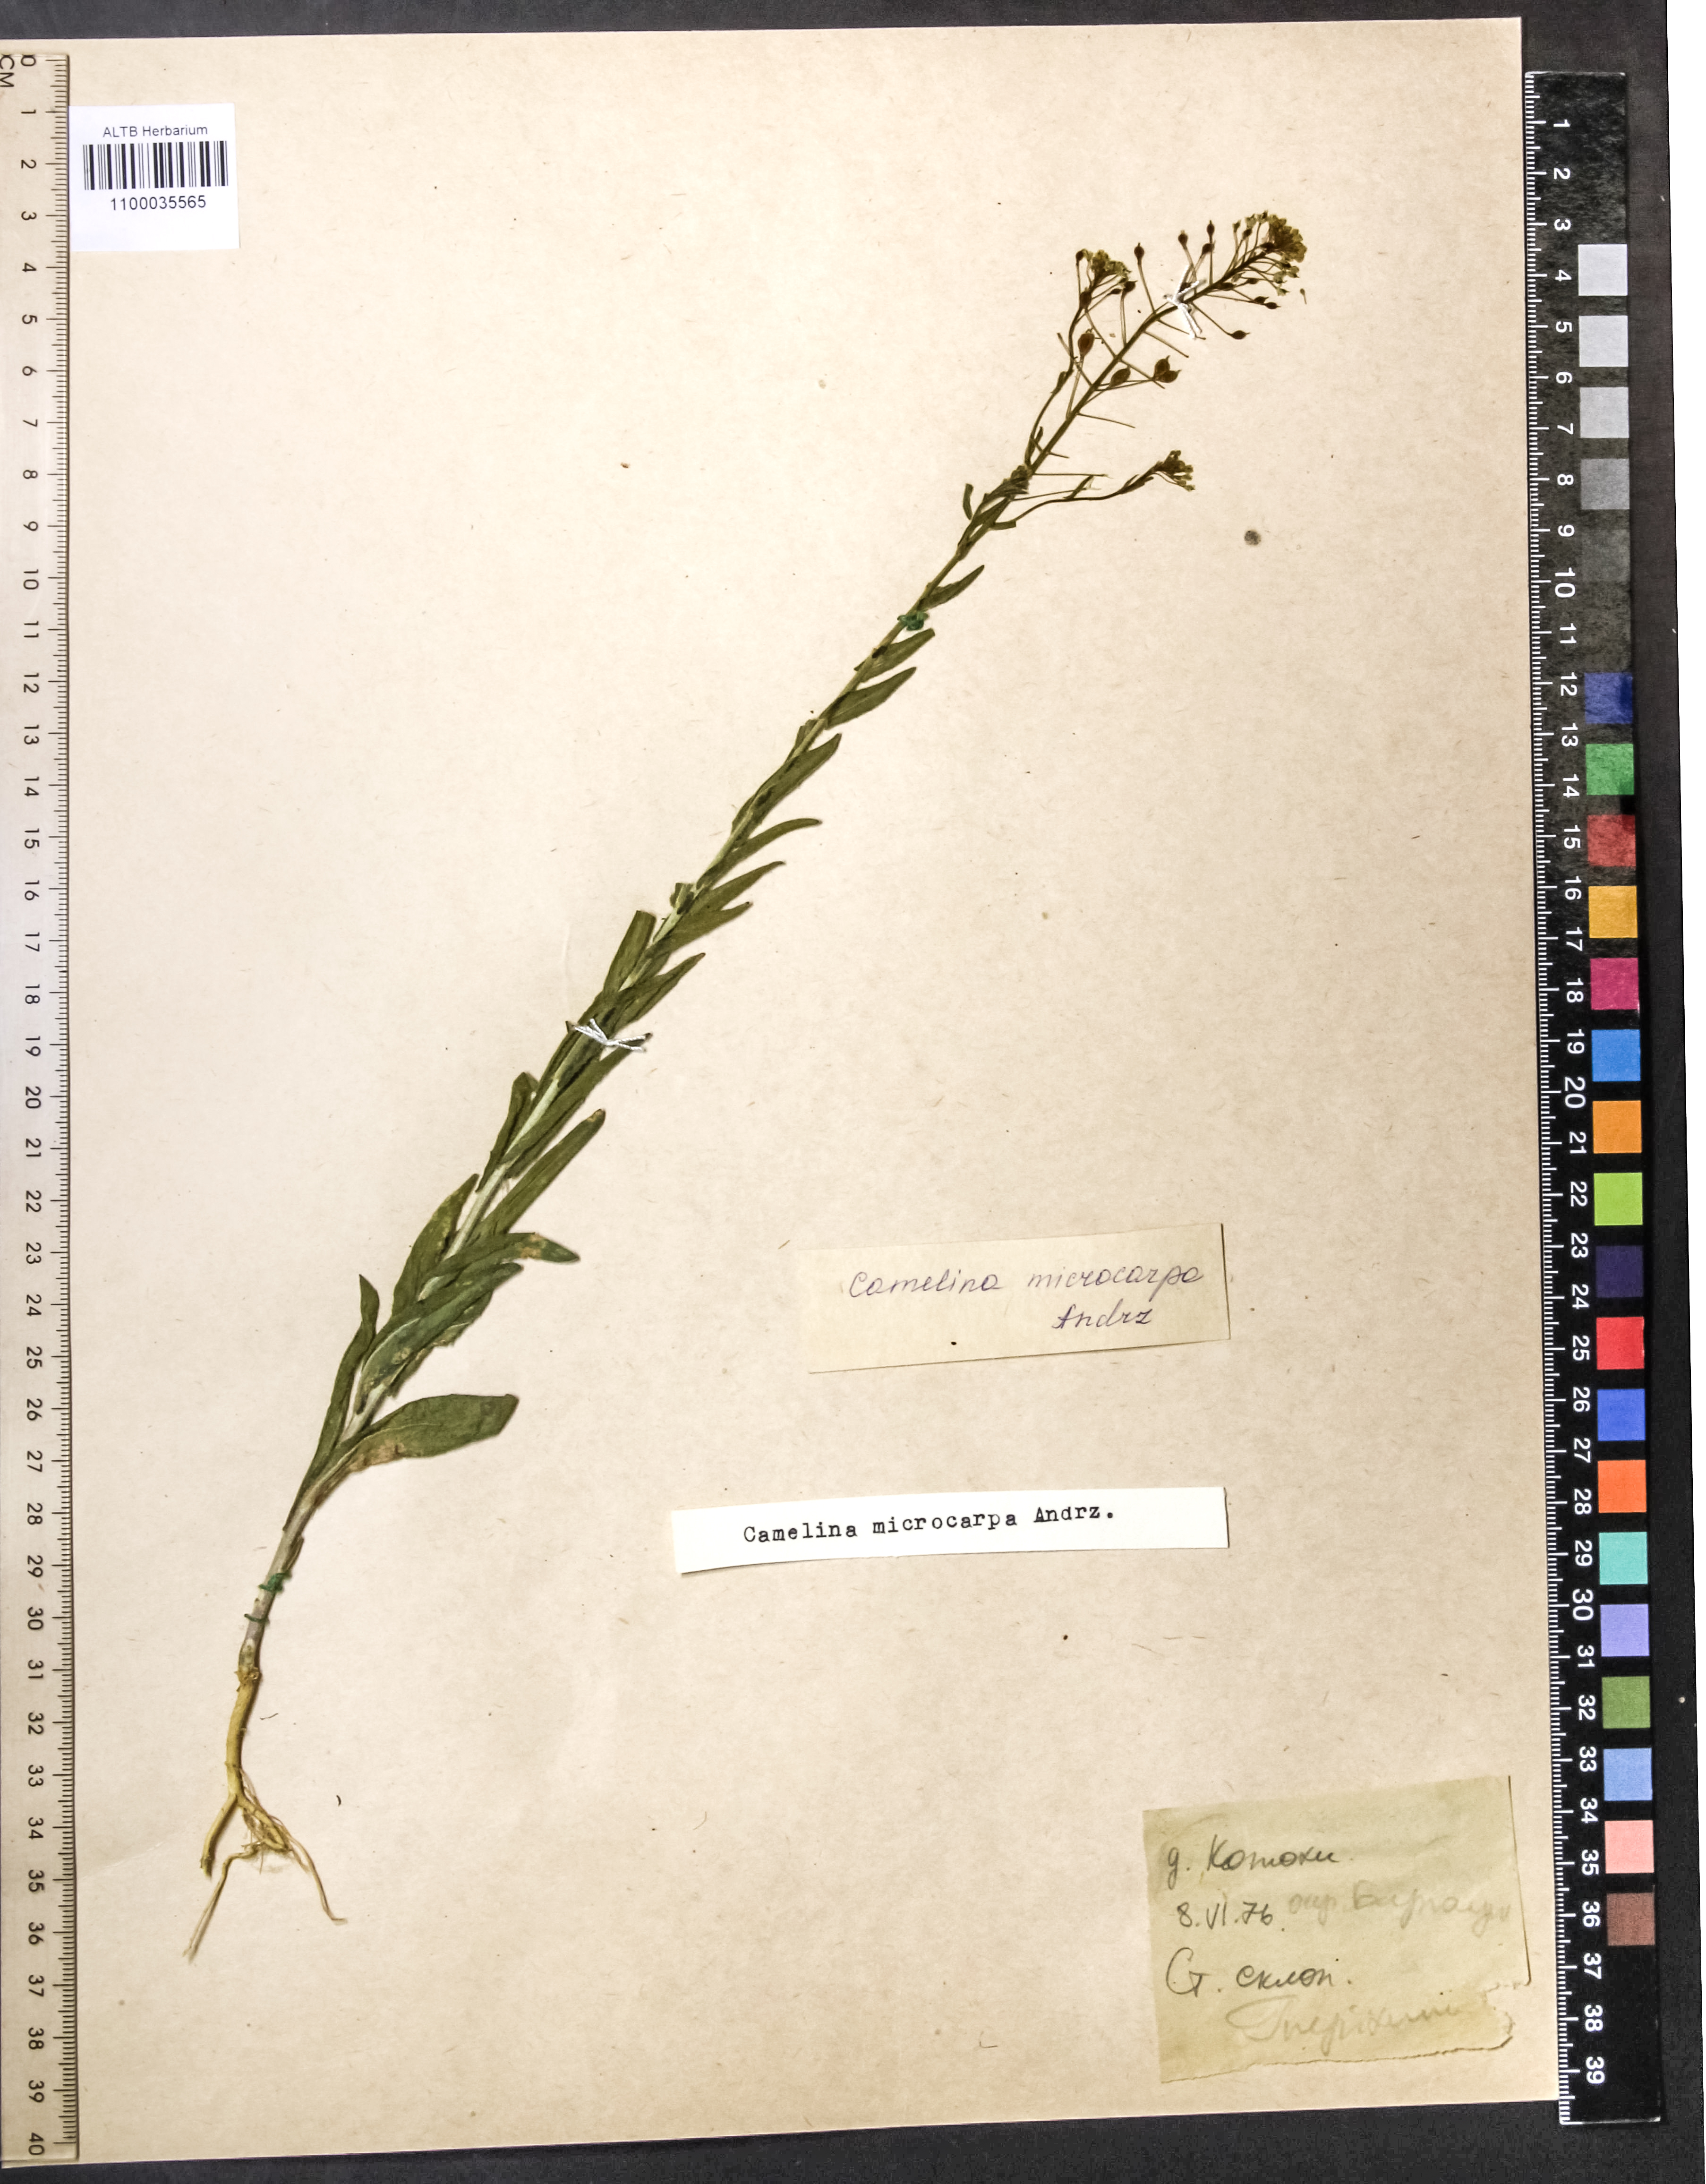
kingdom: Plantae
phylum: Tracheophyta
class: Magnoliopsida
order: Brassicales
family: Brassicaceae
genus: Camelina
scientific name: Camelina microcarpa
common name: Lesser gold-of-pleasure
